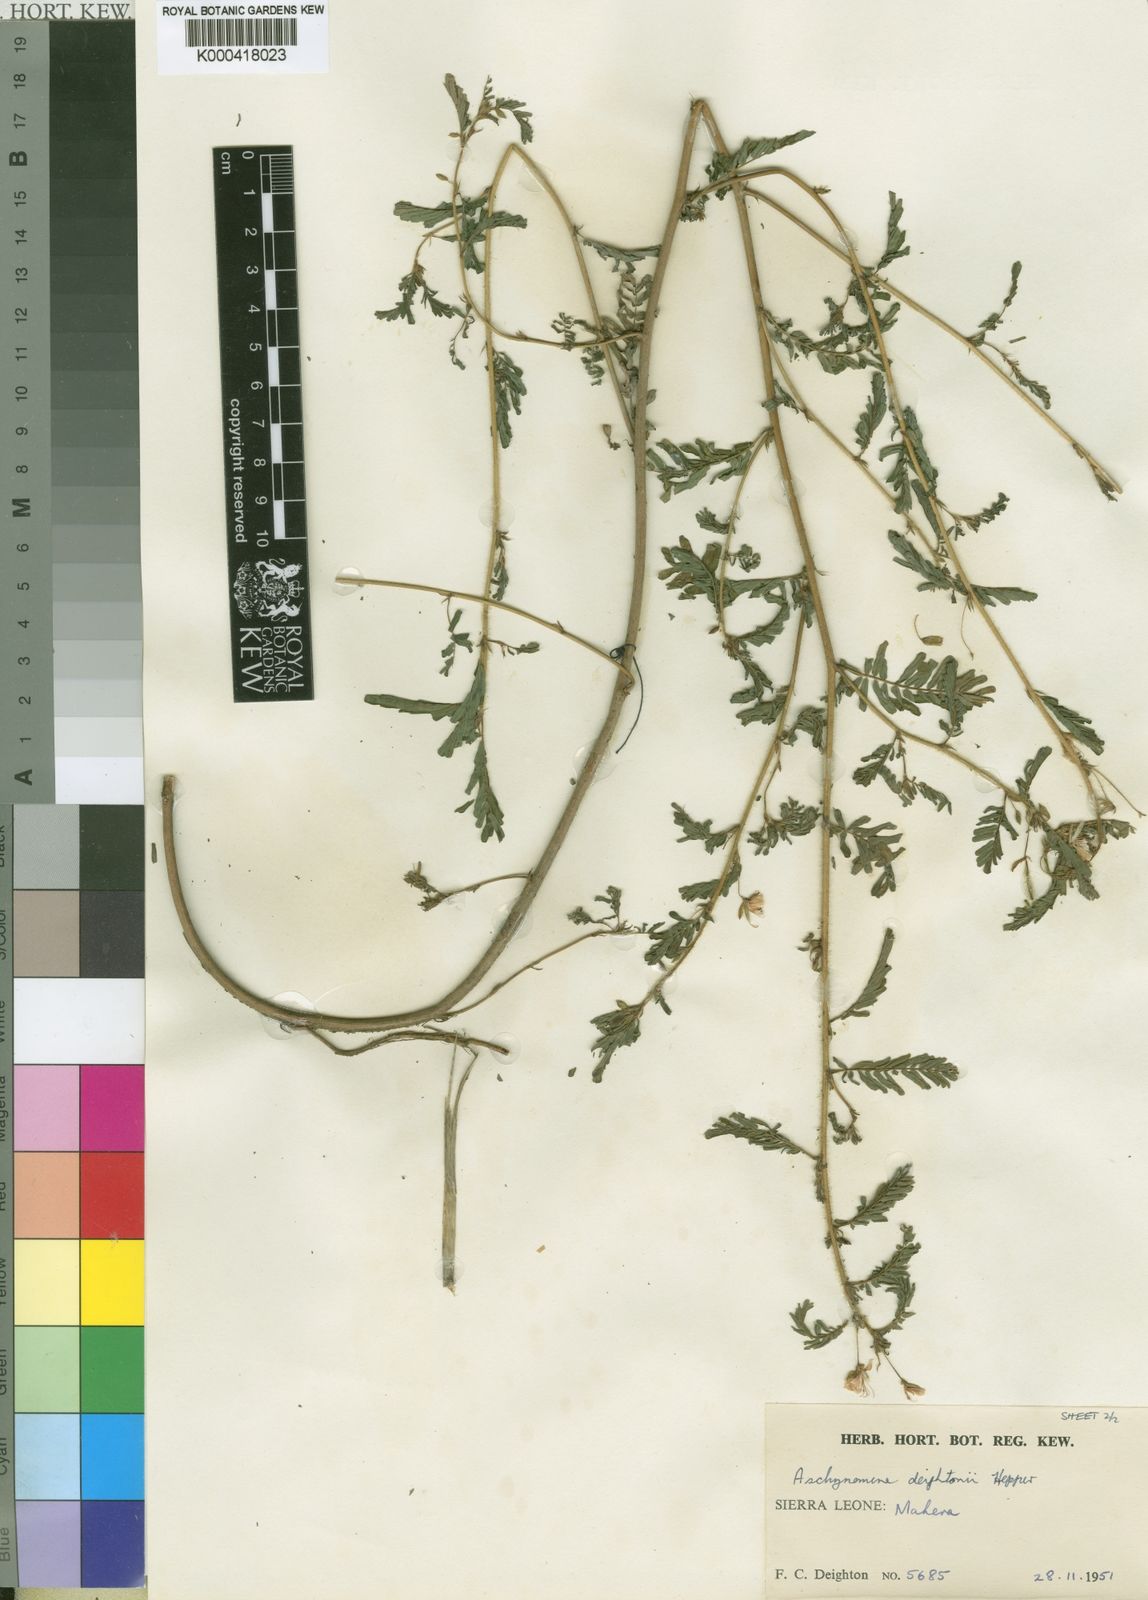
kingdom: Plantae
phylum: Tracheophyta
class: Magnoliopsida
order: Fabales
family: Fabaceae
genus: Aeschynomene
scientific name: Aeschynomene deightonii
